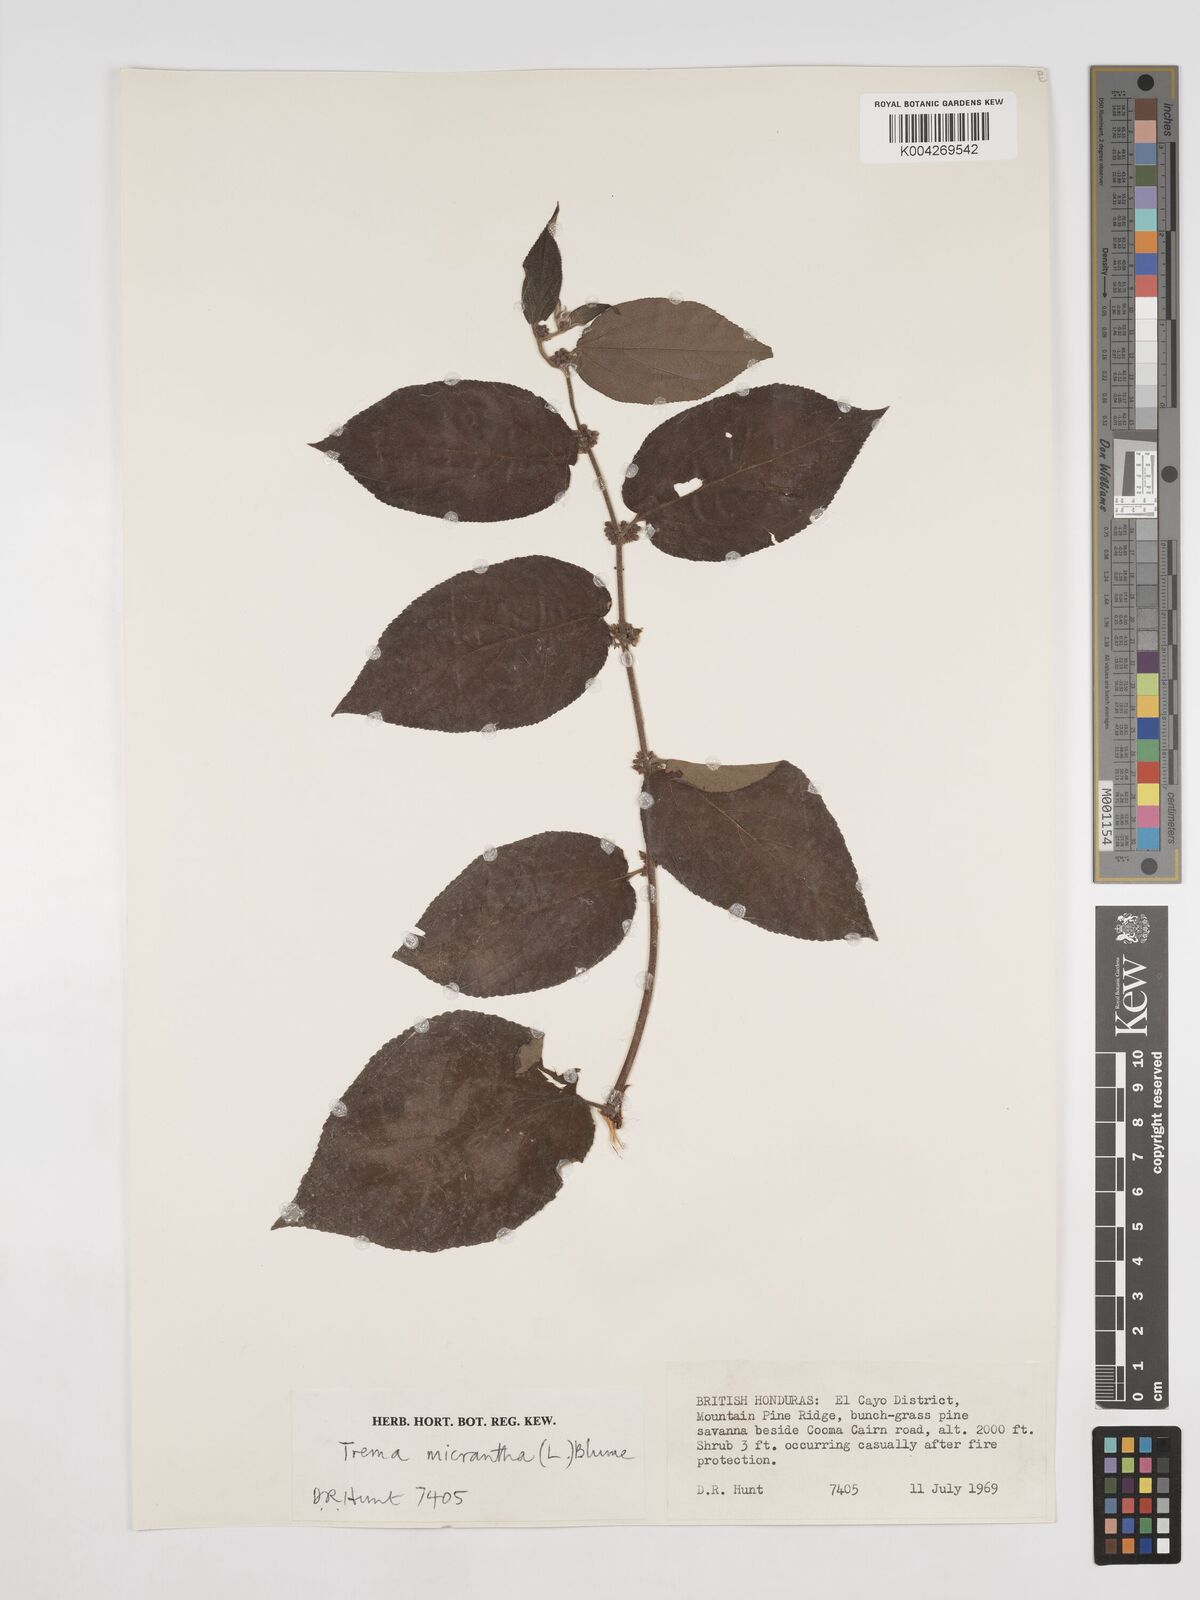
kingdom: Plantae
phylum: Tracheophyta
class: Magnoliopsida
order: Rosales
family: Cannabaceae
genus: Trema
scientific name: Trema micranthum
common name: Jamaican nettletree
